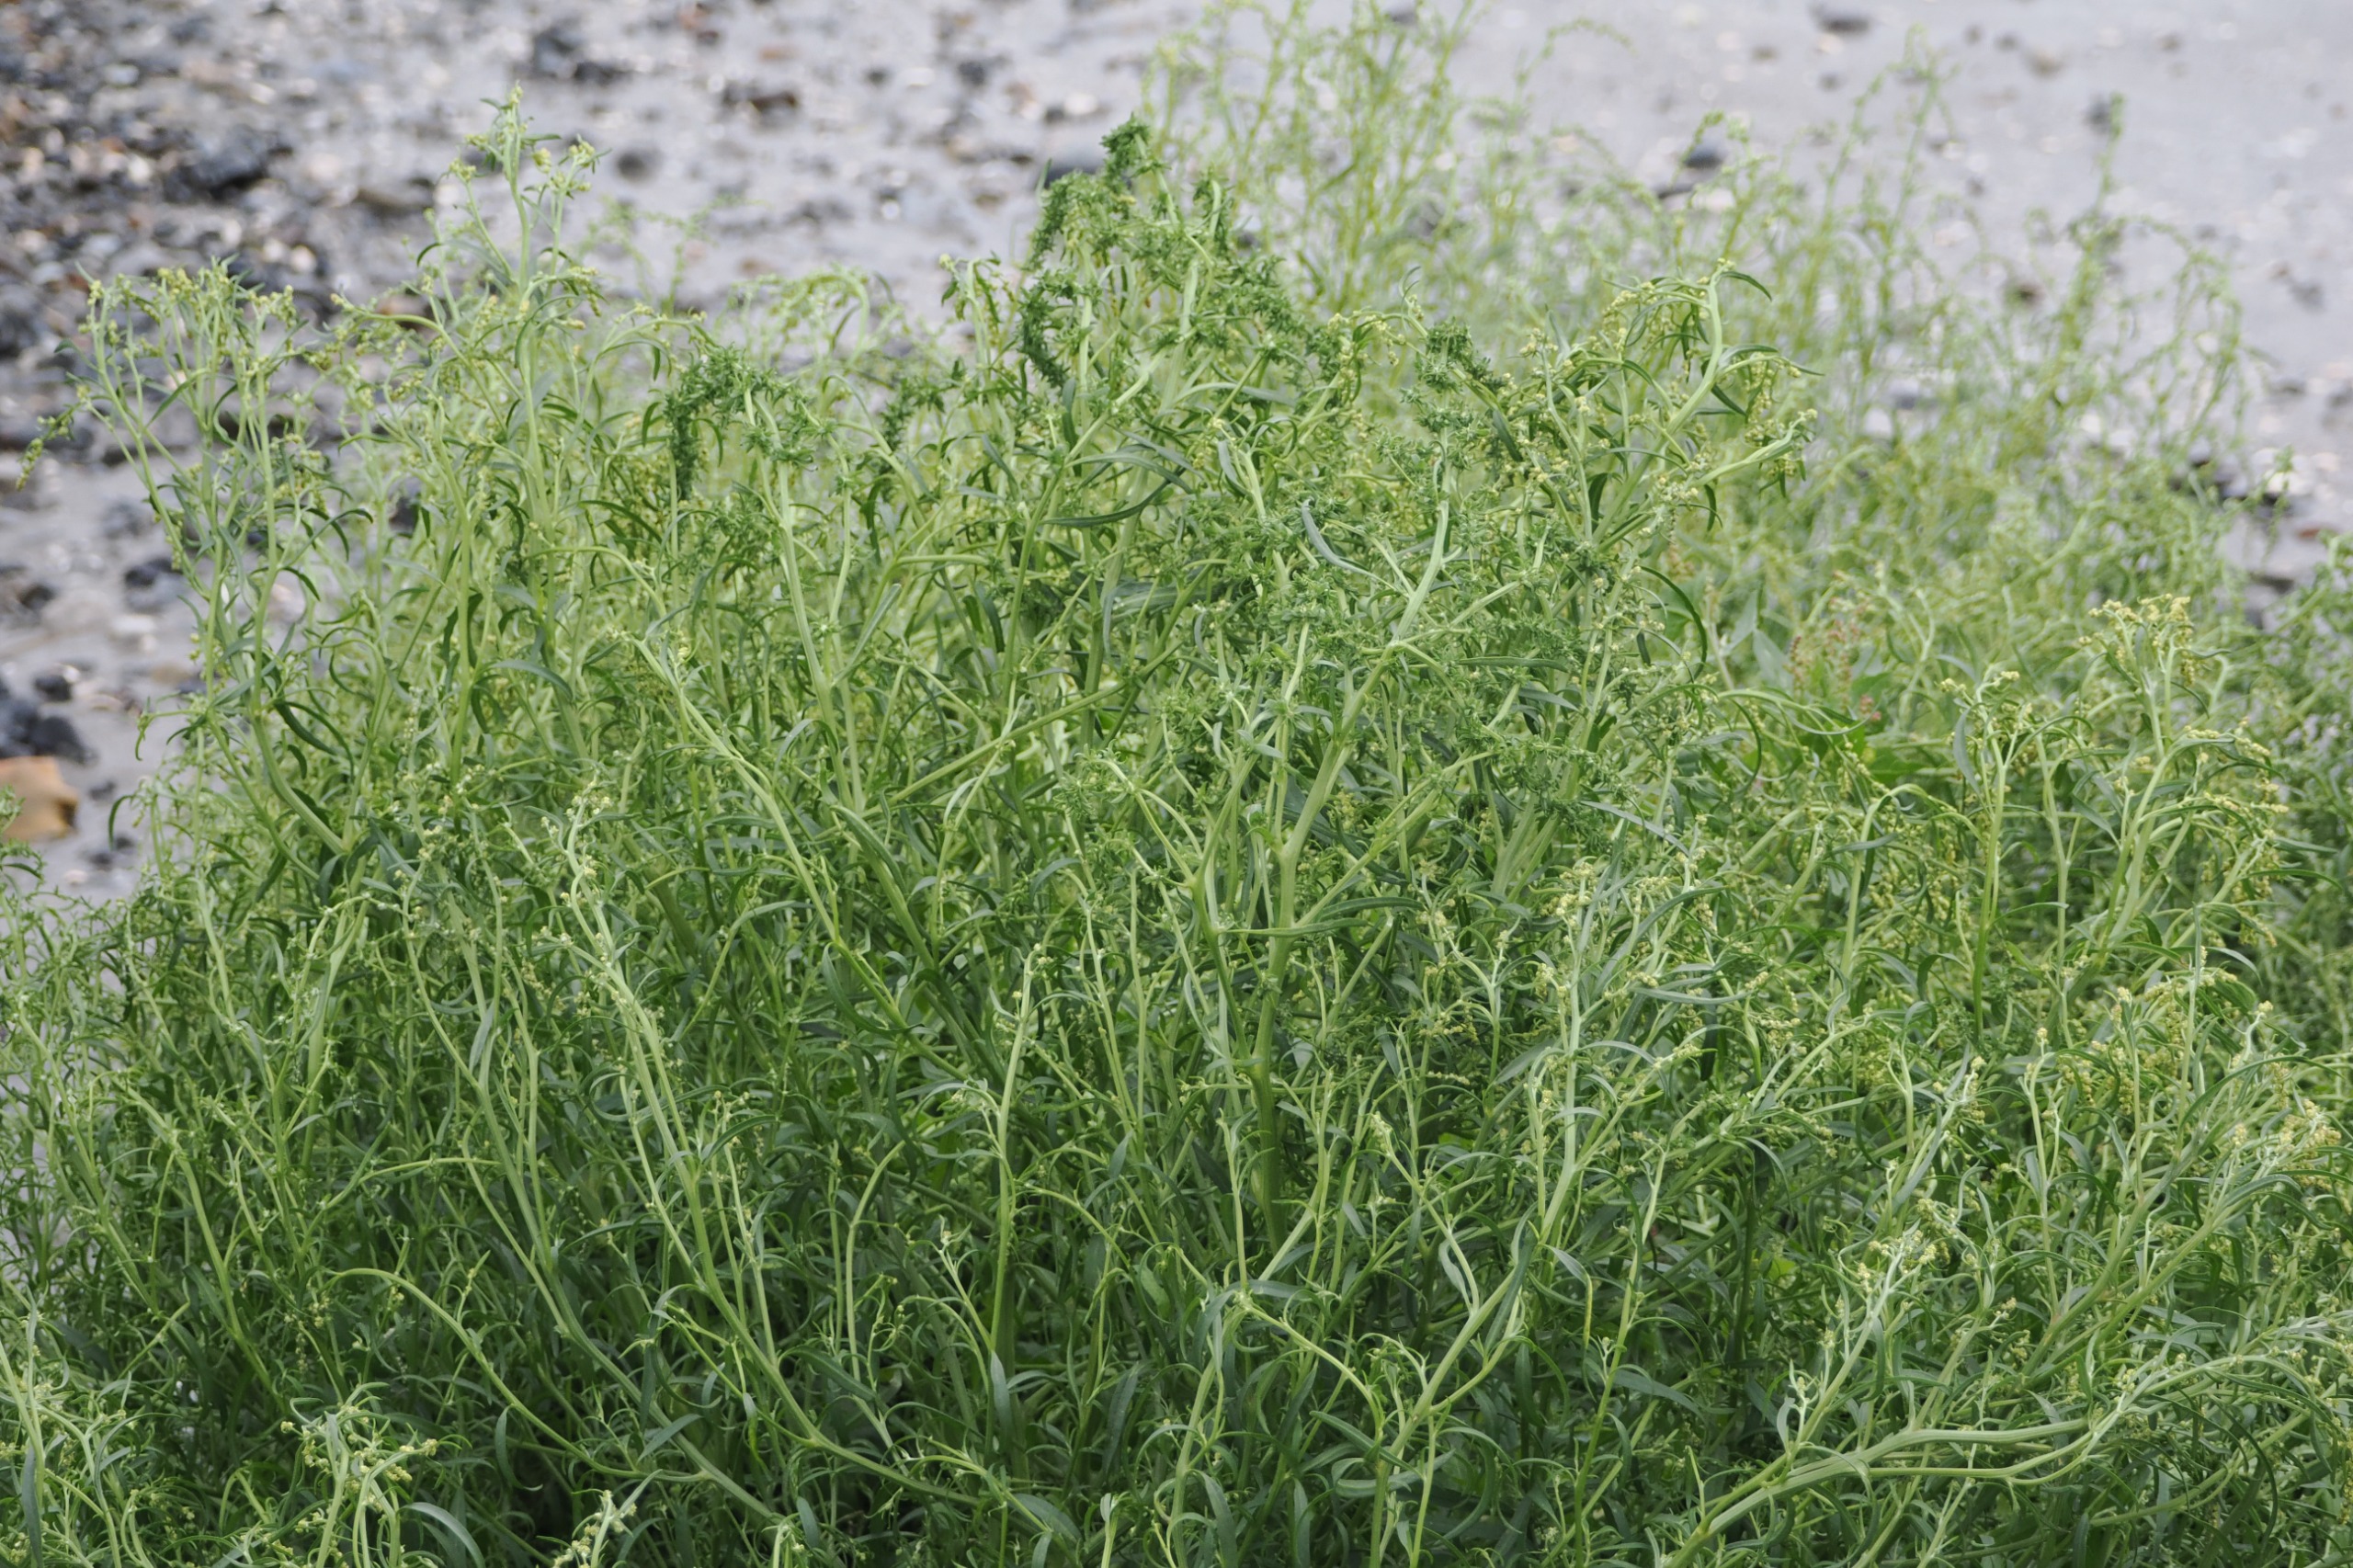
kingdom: Plantae
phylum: Tracheophyta
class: Magnoliopsida
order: Caryophyllales
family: Amaranthaceae
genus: Atriplex
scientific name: Atriplex littoralis
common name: Strand-mælde
